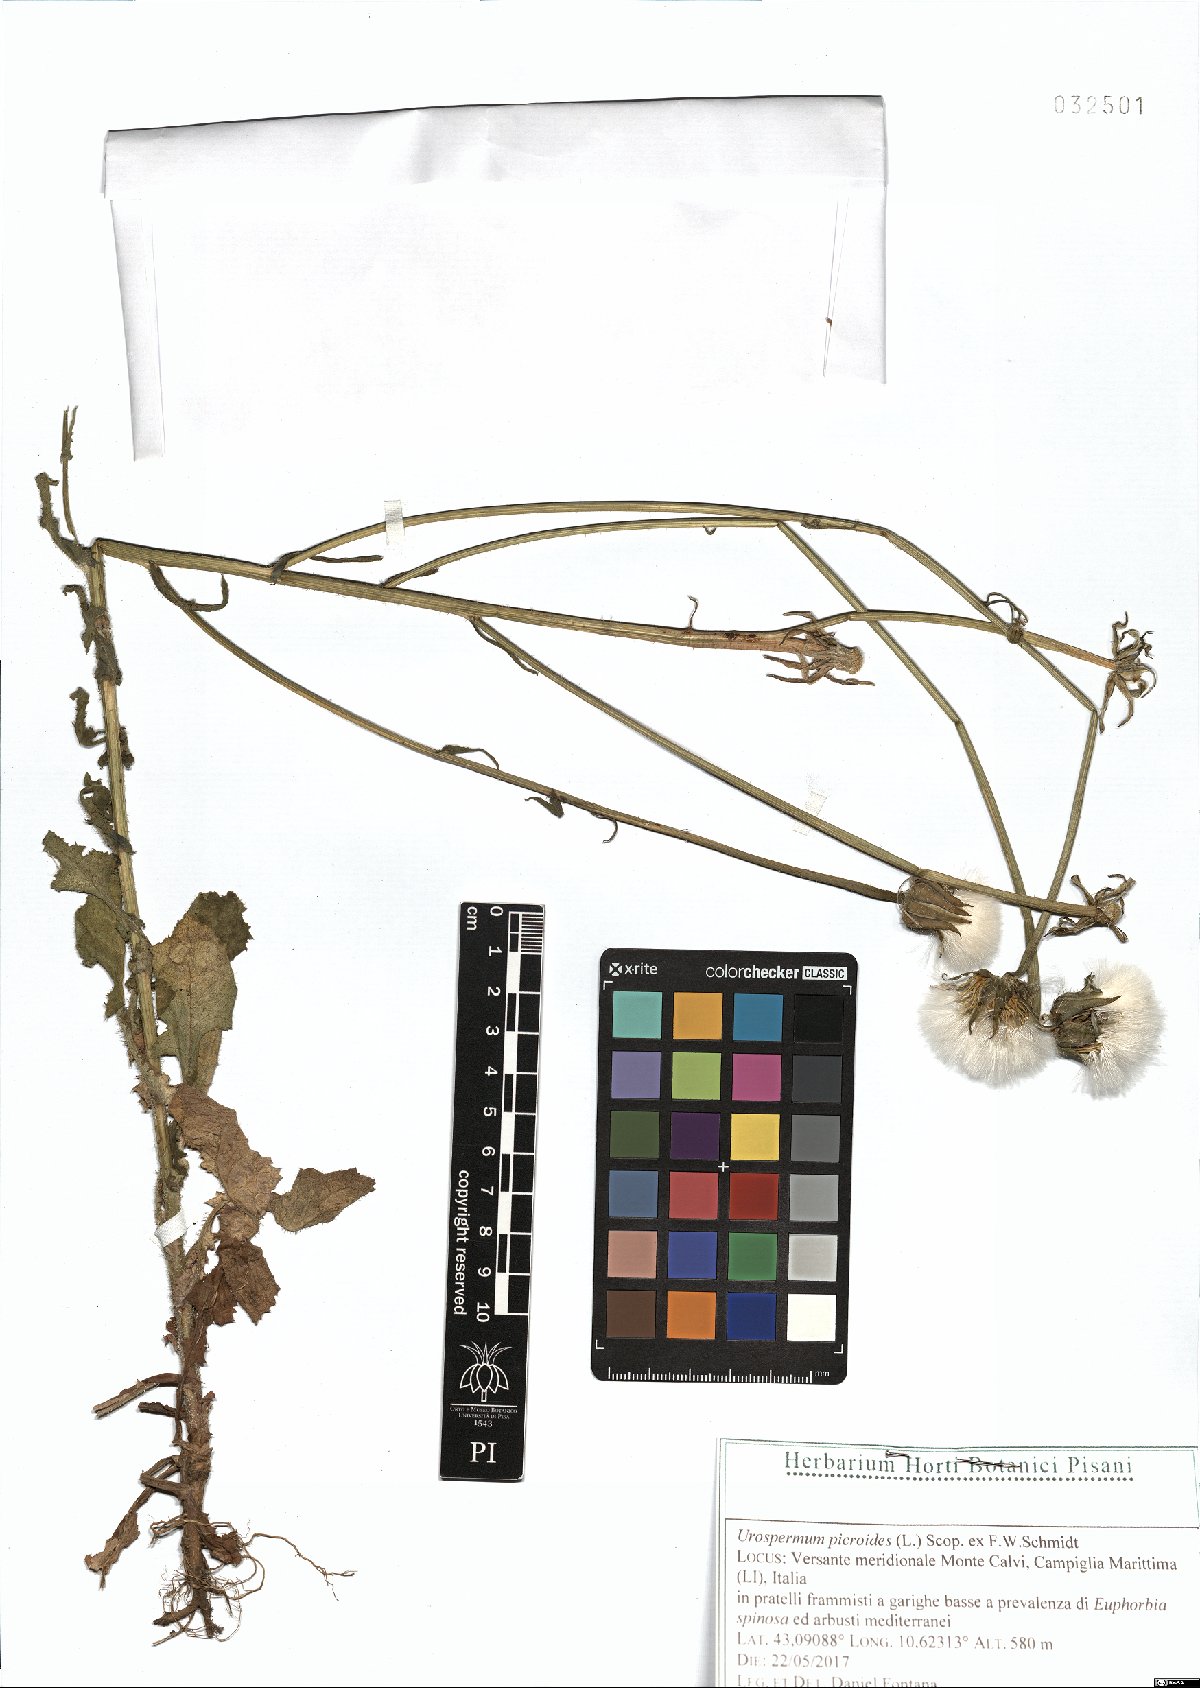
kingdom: Plantae
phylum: Tracheophyta
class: Magnoliopsida
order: Asterales
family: Asteraceae
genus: Urospermum
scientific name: Urospermum picroides
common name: False hawkbit
